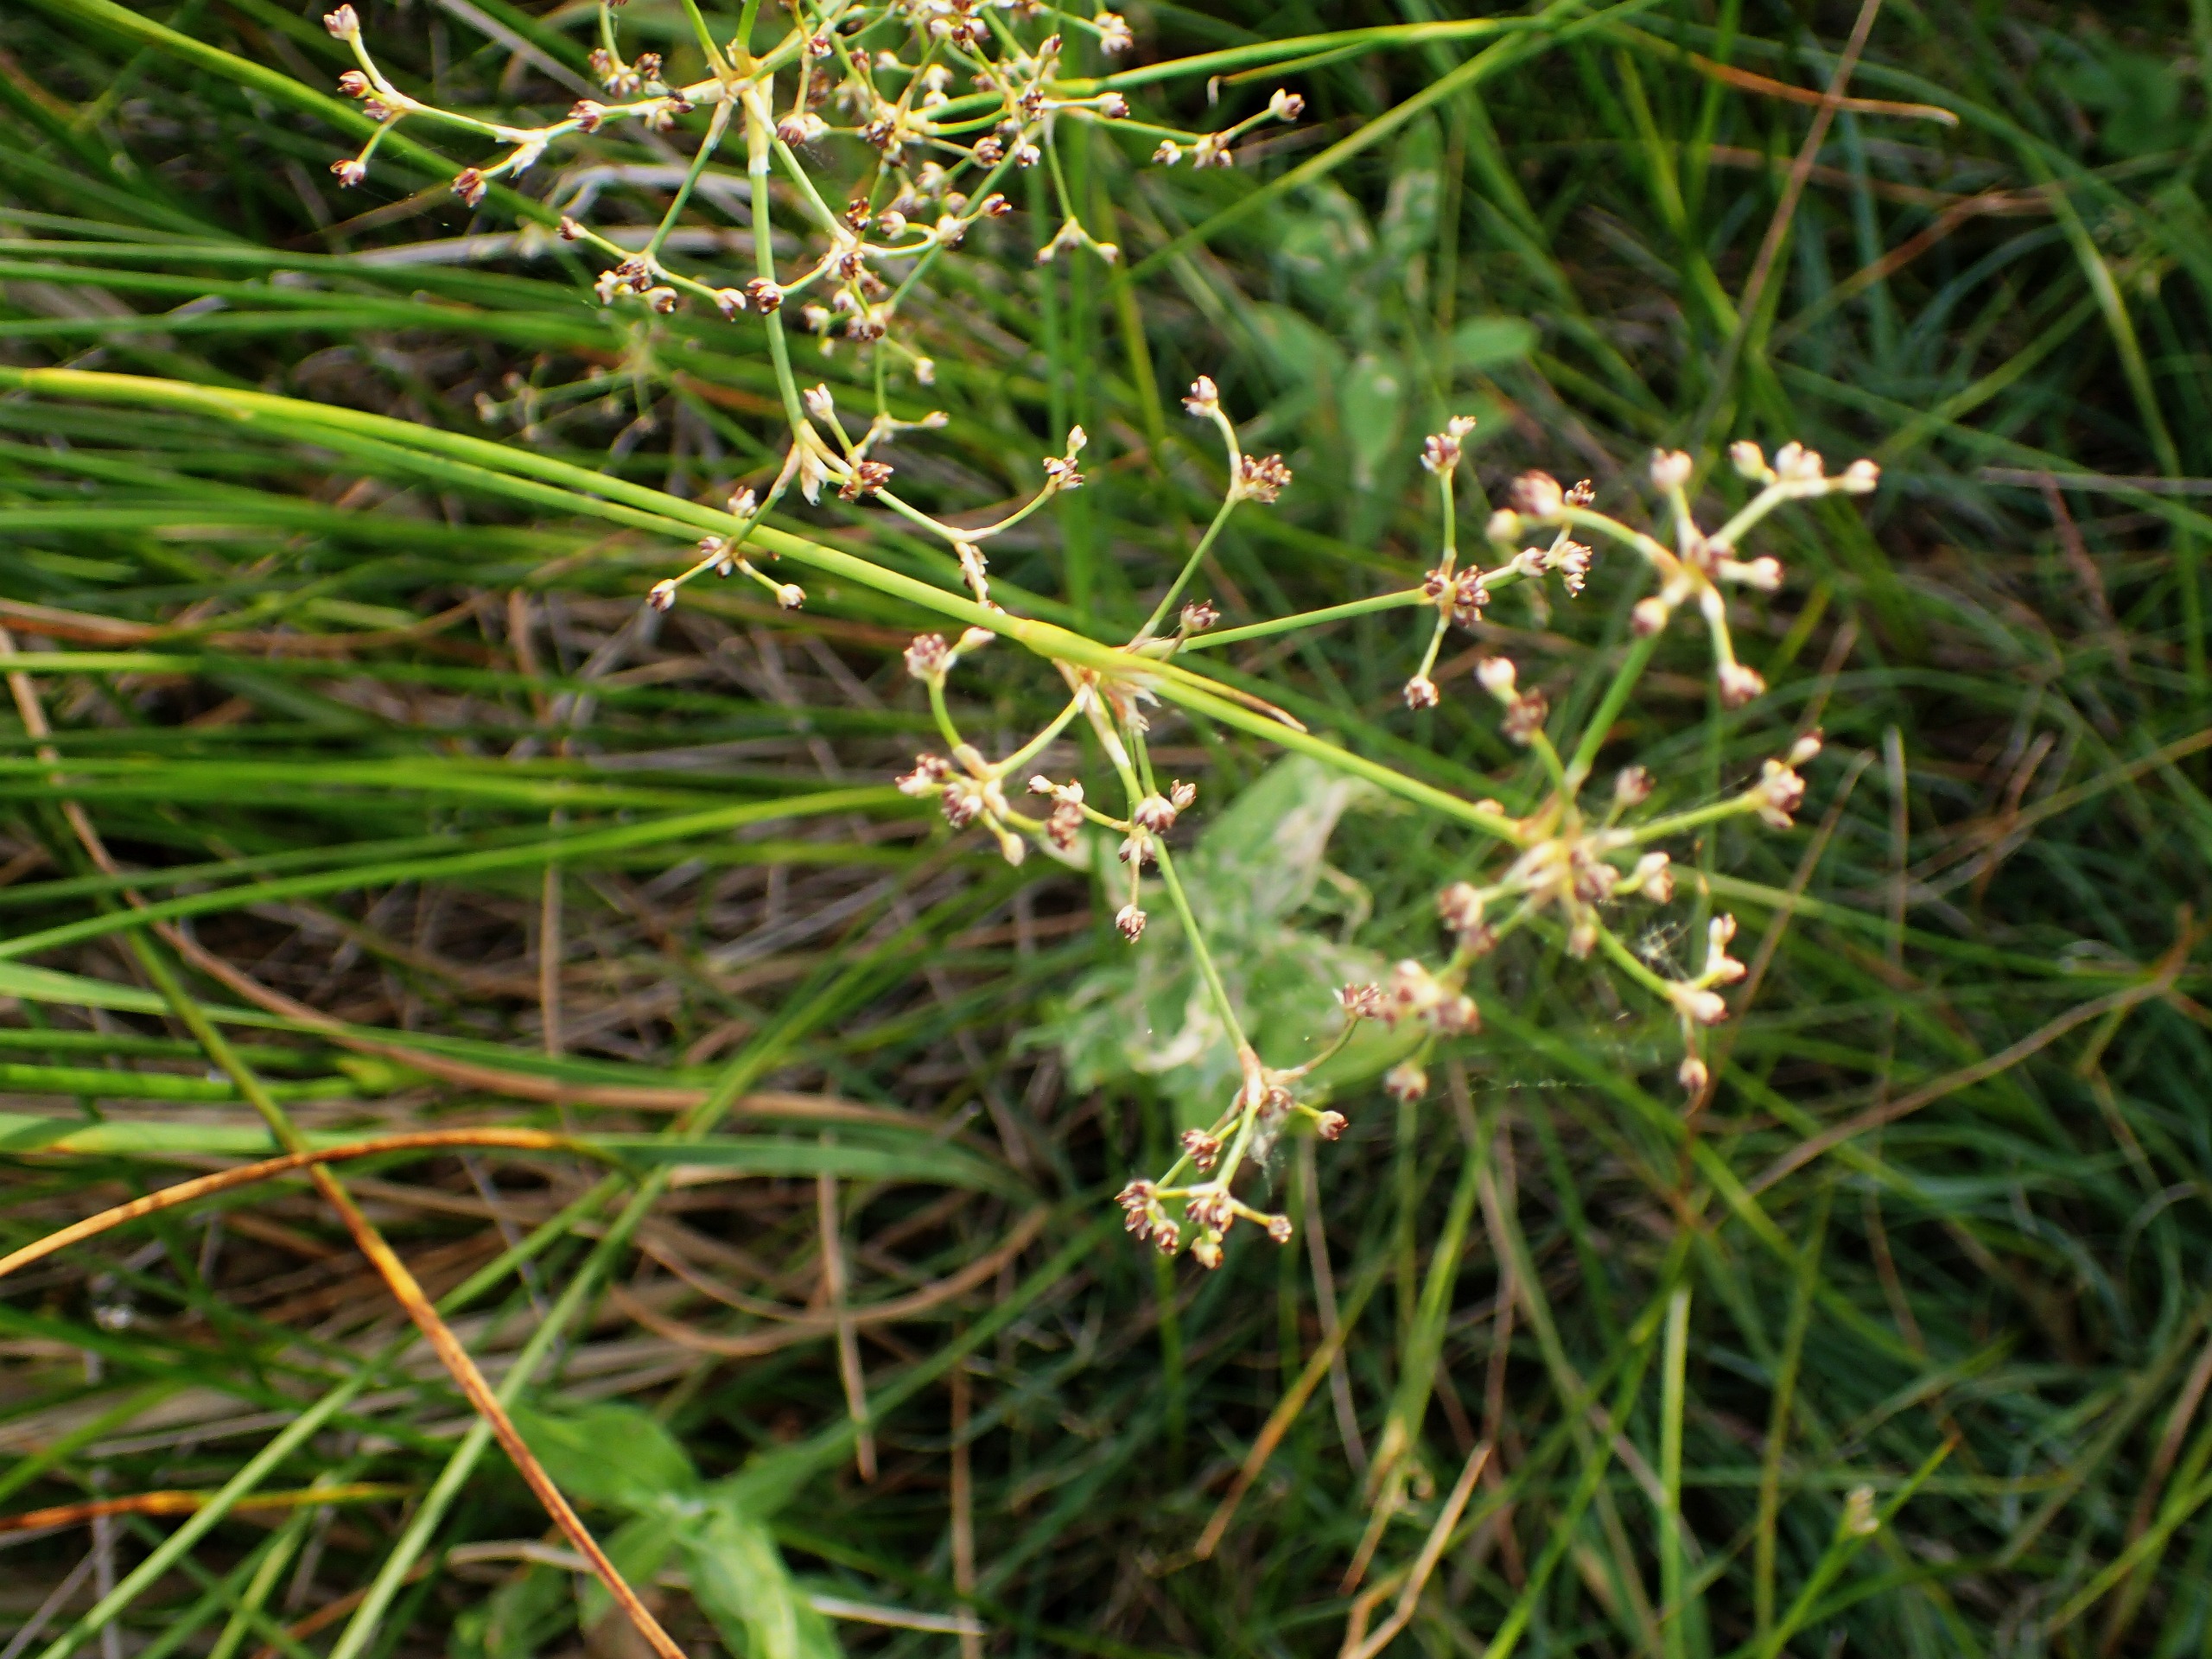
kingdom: Plantae
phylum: Tracheophyta
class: Liliopsida
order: Poales
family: Juncaceae
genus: Juncus
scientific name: Juncus subnodulosus
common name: Butblomstret siv
